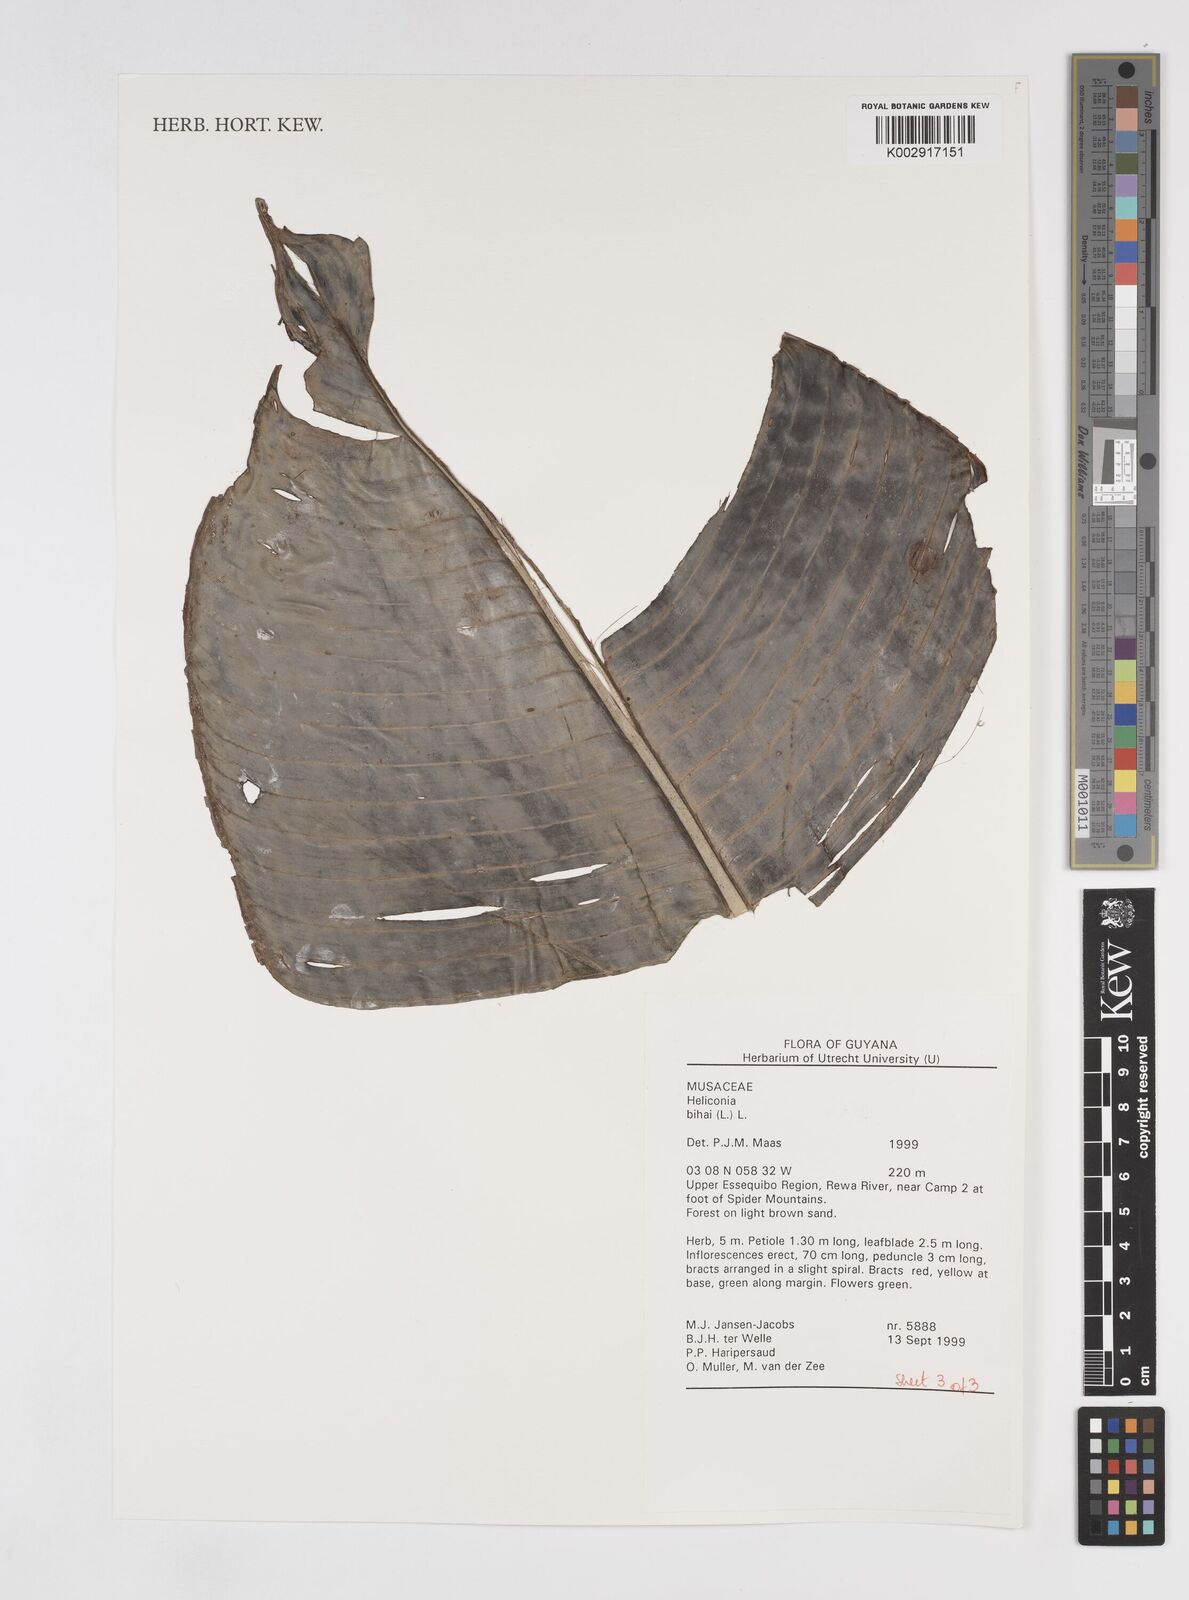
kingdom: Plantae
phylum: Tracheophyta
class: Liliopsida
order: Zingiberales
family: Heliconiaceae
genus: Heliconia
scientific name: Heliconia bihai
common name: Macaw flower
